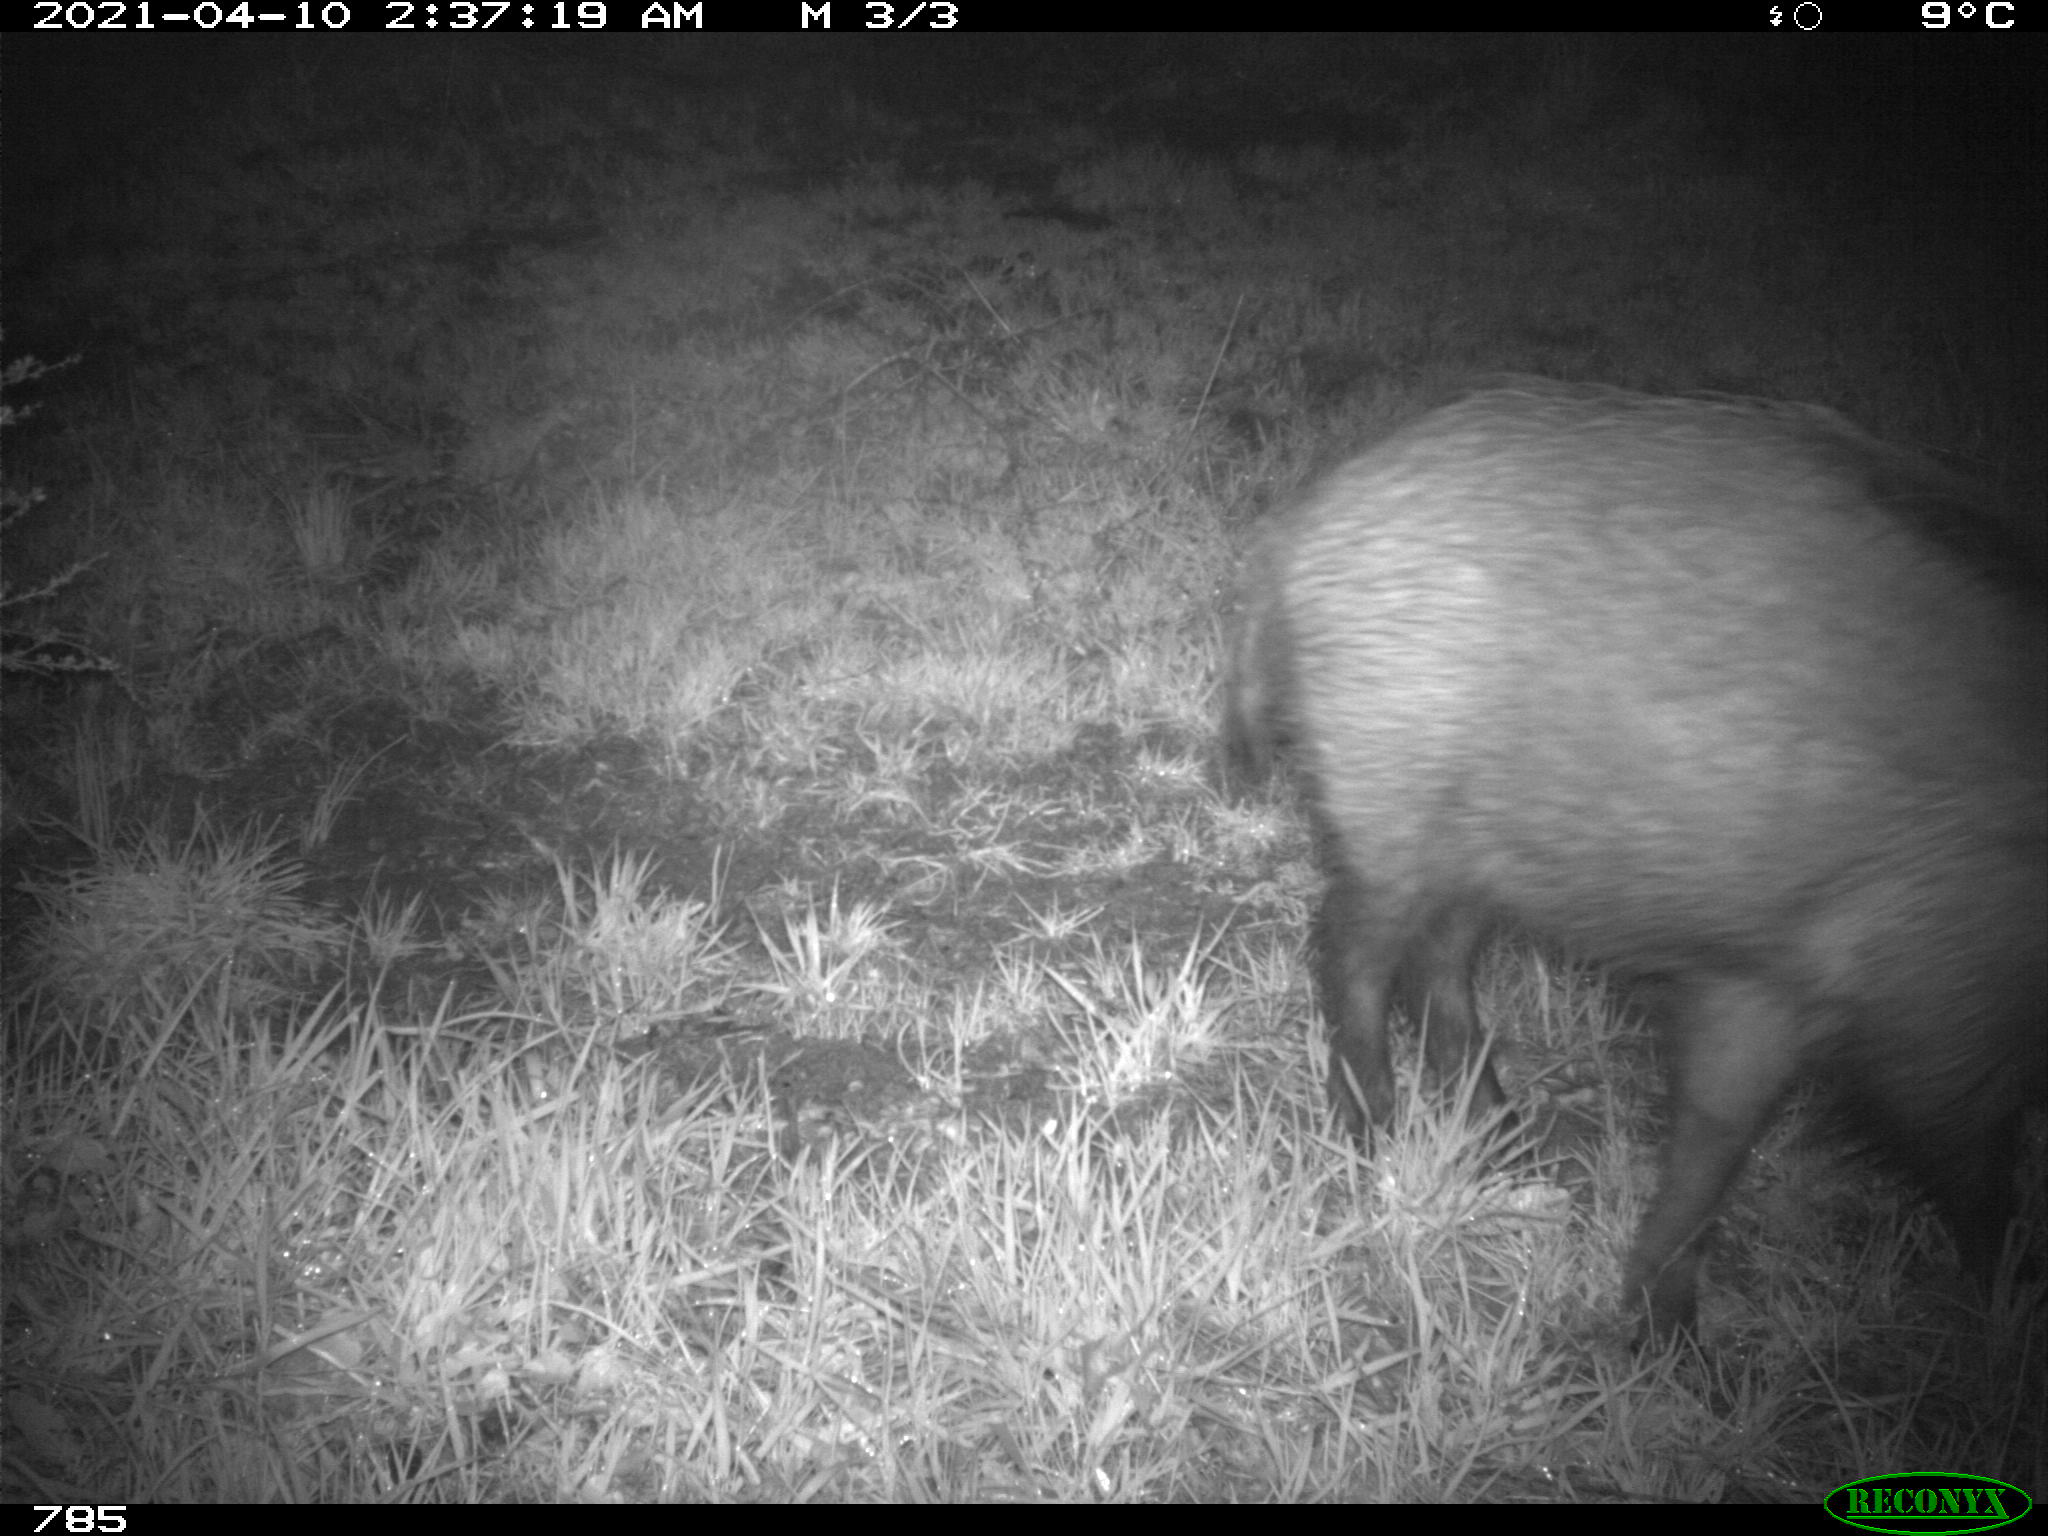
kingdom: Animalia
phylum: Chordata
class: Mammalia
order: Artiodactyla
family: Suidae
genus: Sus
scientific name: Sus scrofa
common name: Wild boar
